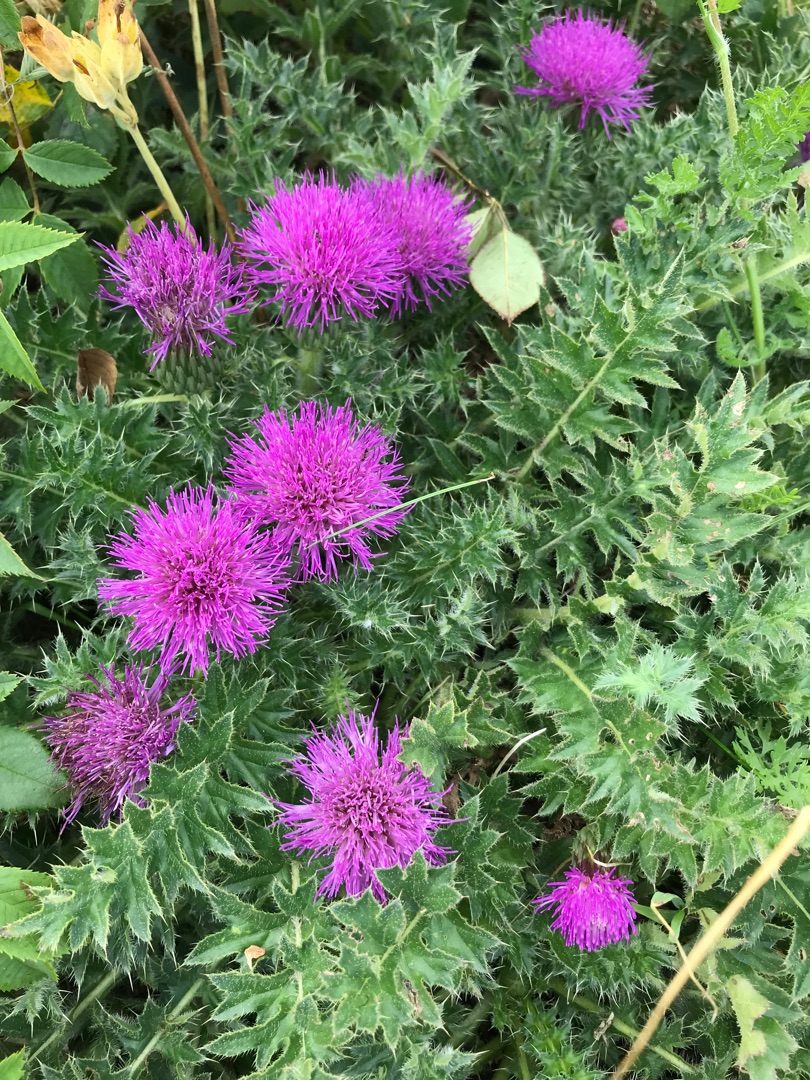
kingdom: Plantae
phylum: Tracheophyta
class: Magnoliopsida
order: Asterales
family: Asteraceae
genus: Cirsium
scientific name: Cirsium acaule
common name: Lav tidsel
